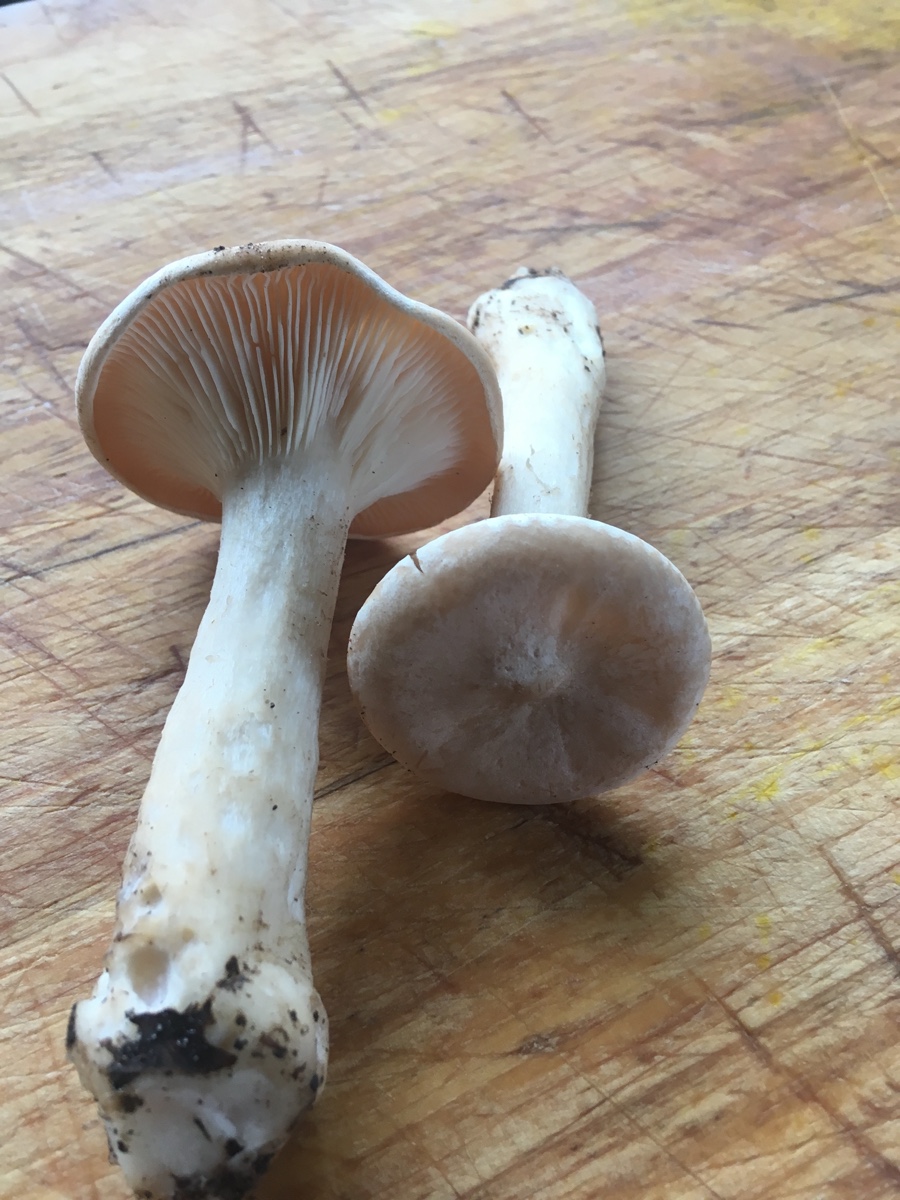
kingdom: Fungi
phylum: Basidiomycota
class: Agaricomycetes
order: Agaricales
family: Tricholomataceae
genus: Infundibulicybe
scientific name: Infundibulicybe geotropa
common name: stor tragthat
